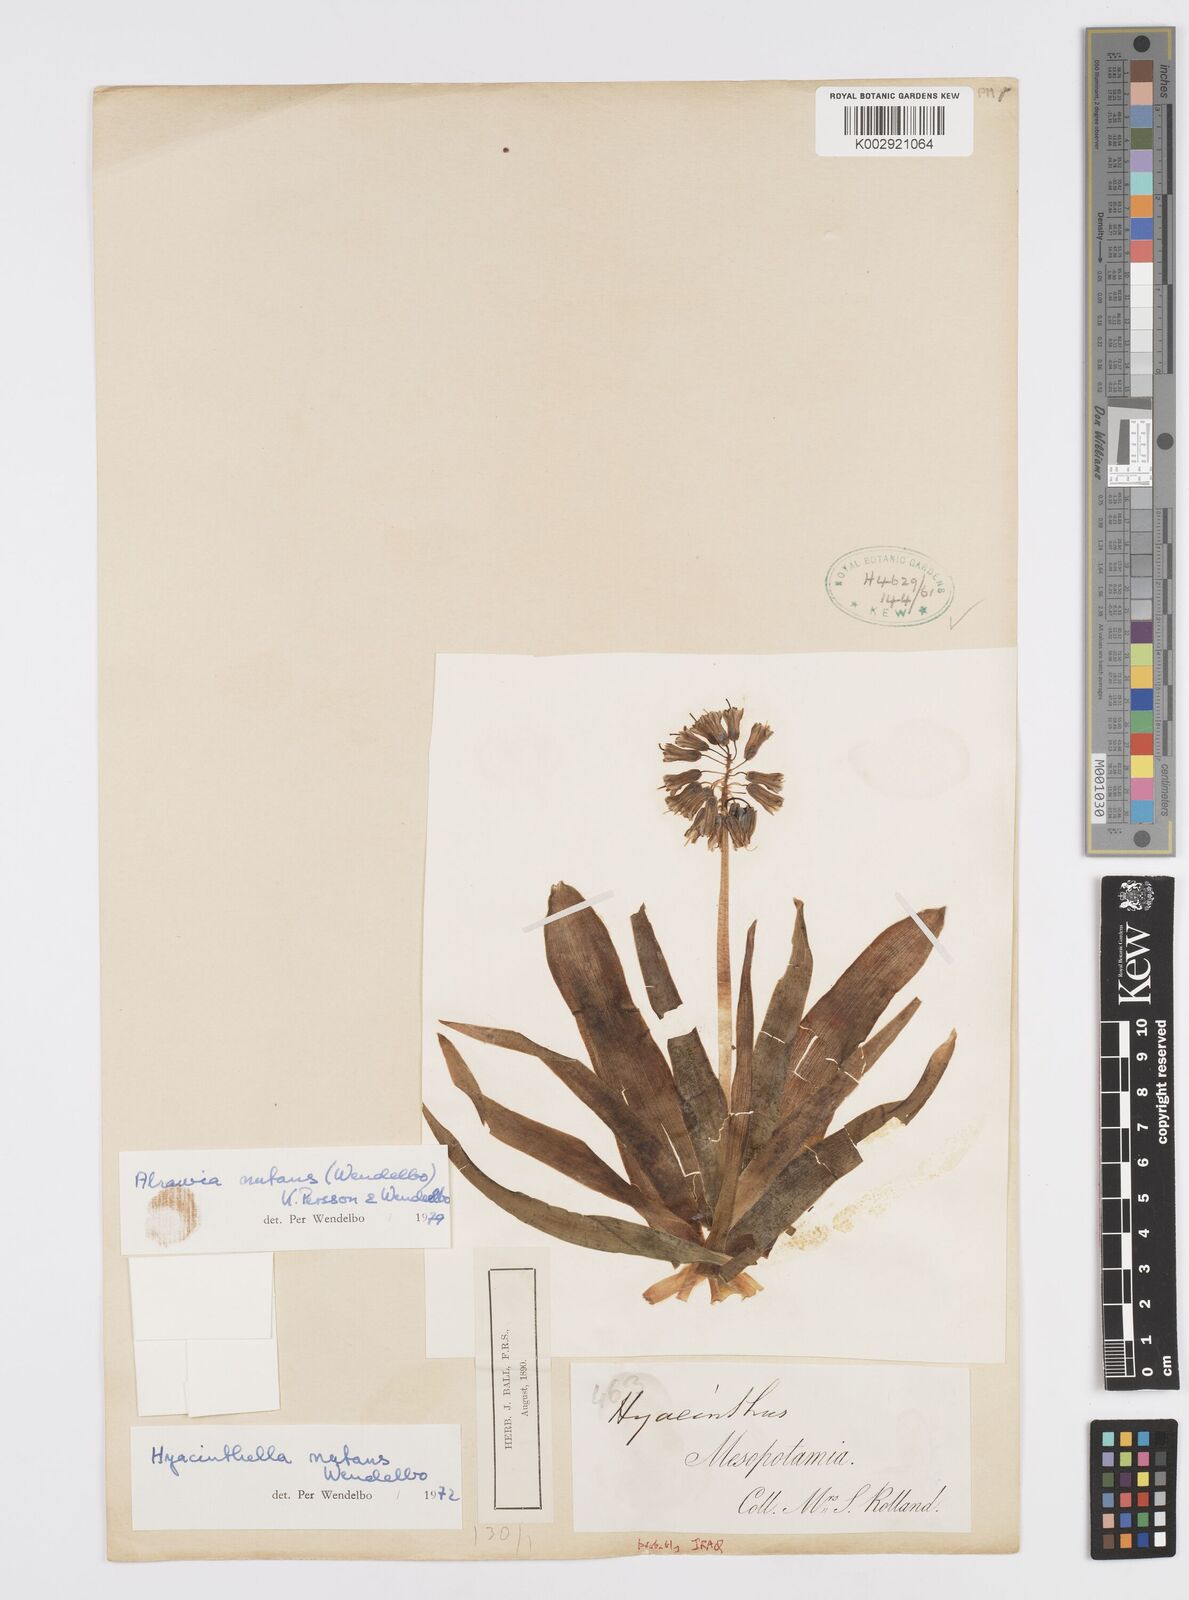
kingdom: Plantae
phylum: Tracheophyta
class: Liliopsida
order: Asparagales
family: Asparagaceae
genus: Alrawia
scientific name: Alrawia nutans
